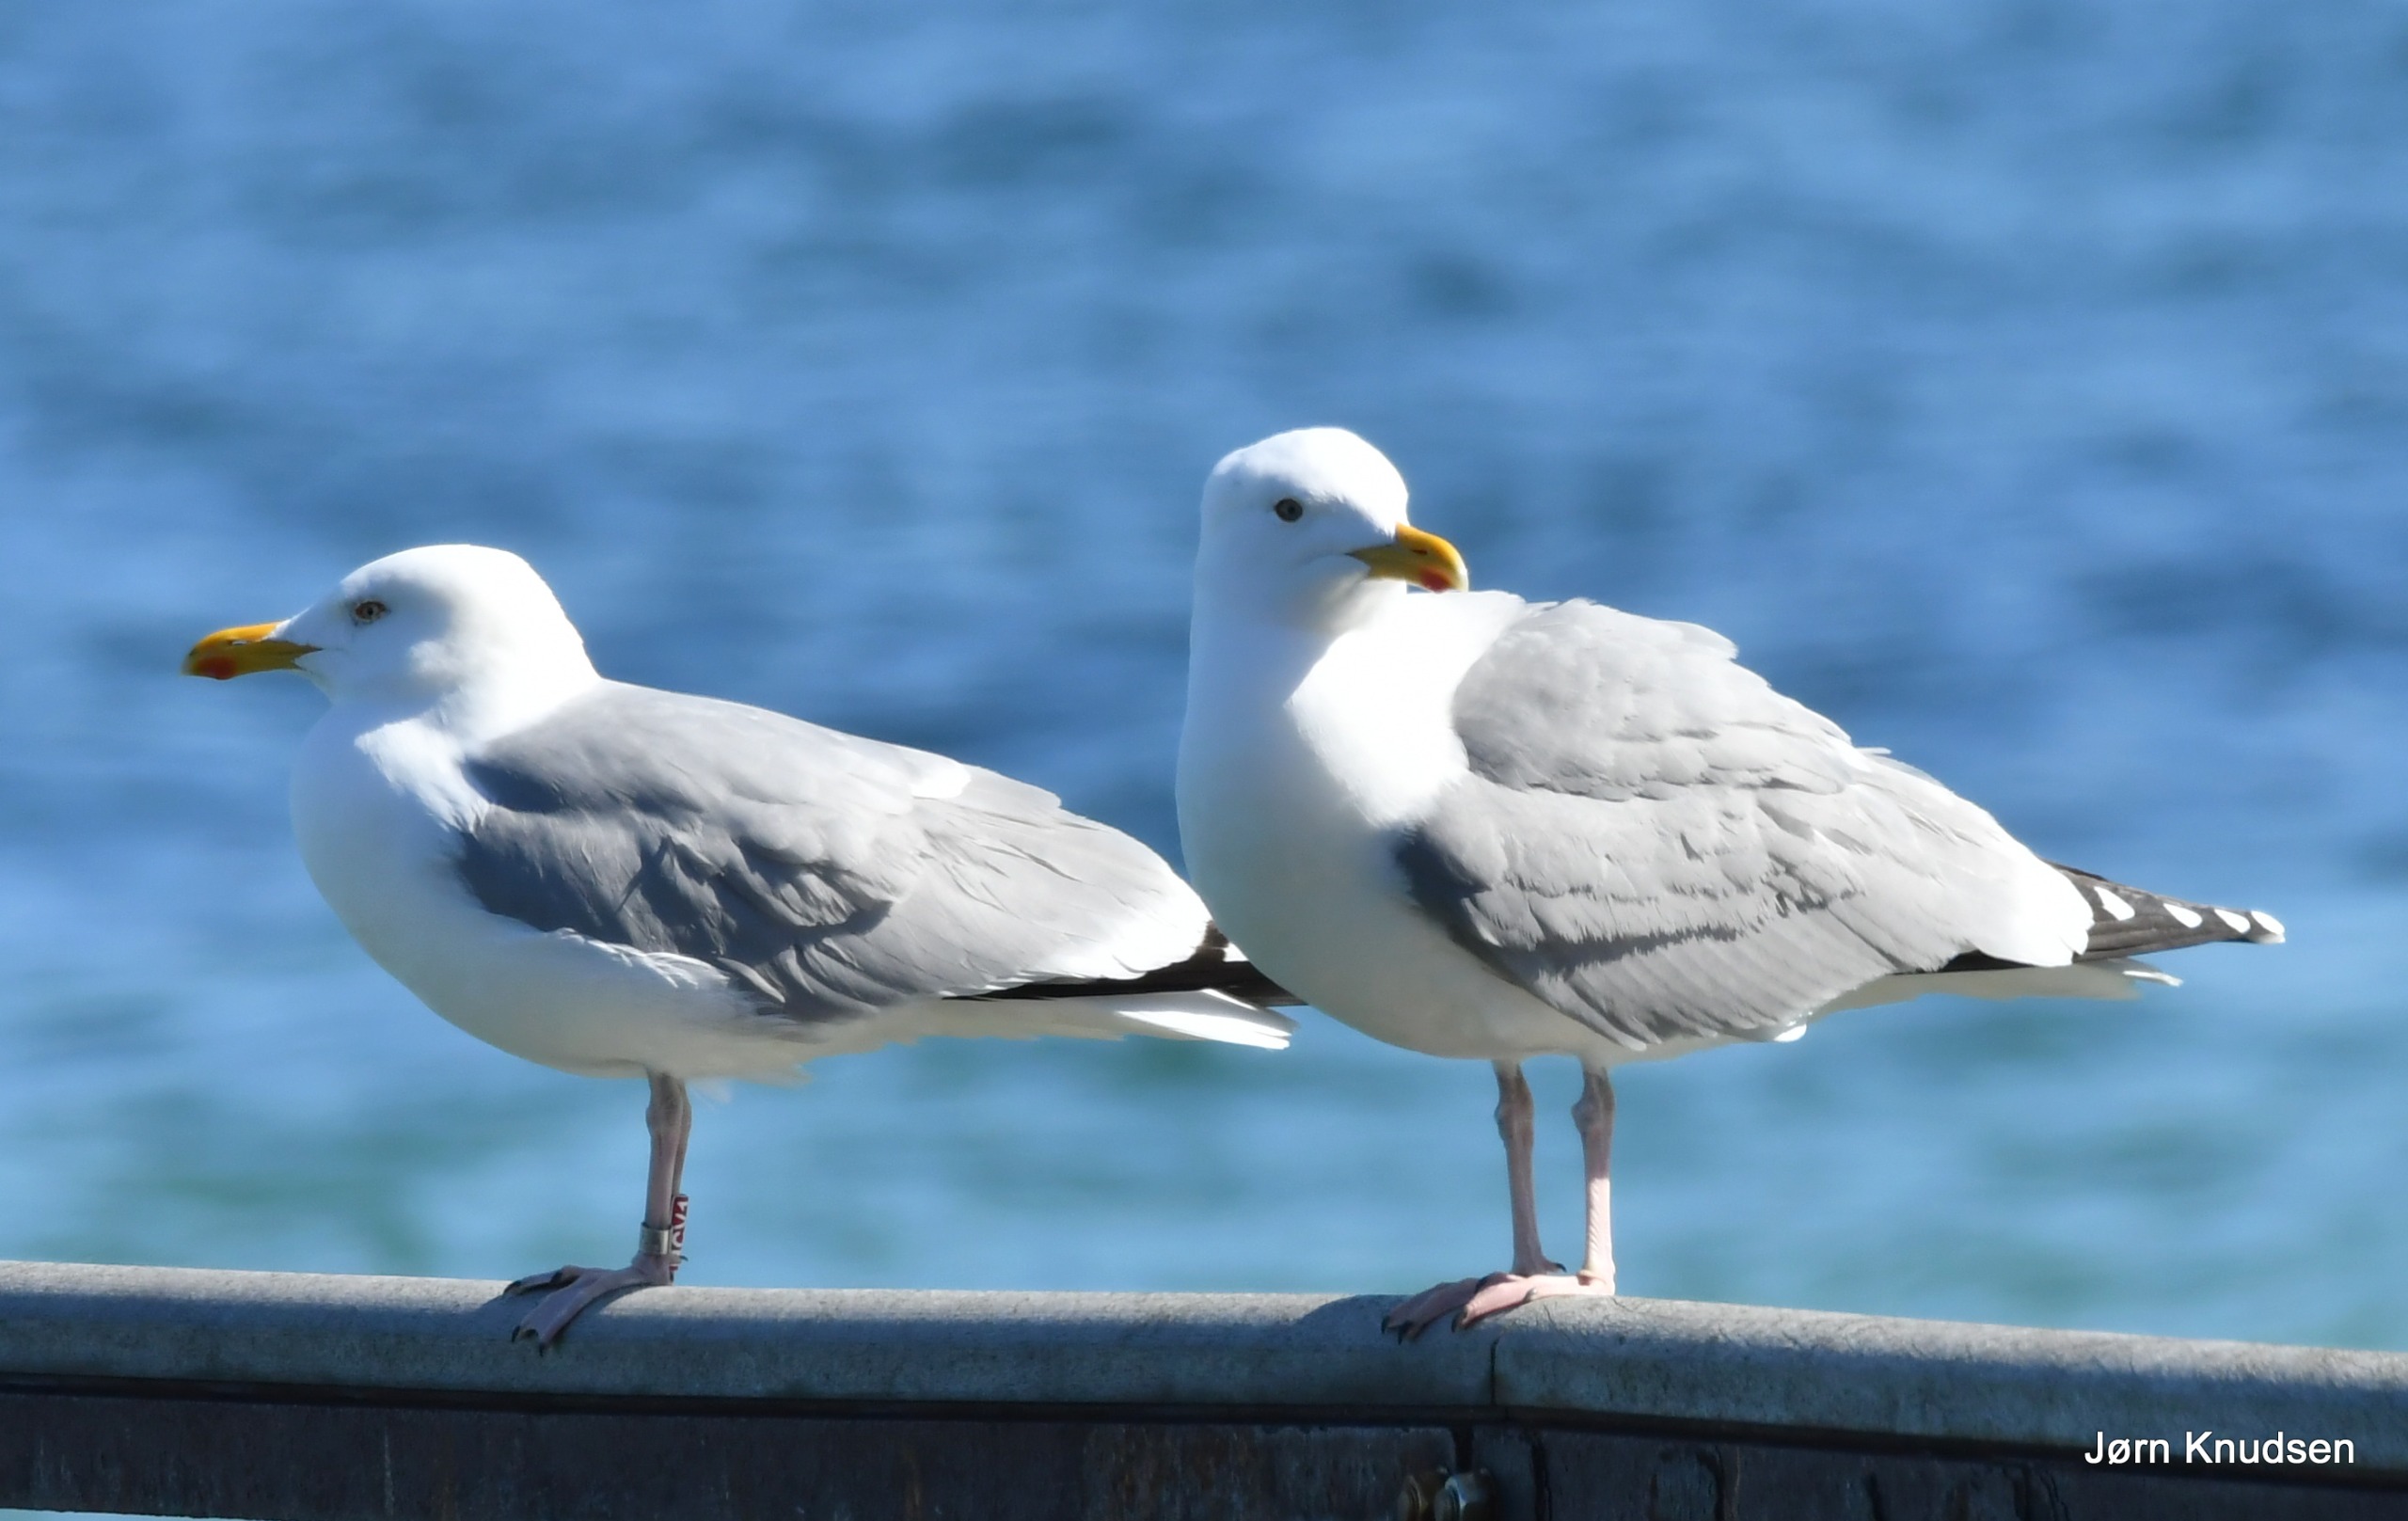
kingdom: Animalia
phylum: Chordata
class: Aves
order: Charadriiformes
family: Laridae
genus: Larus
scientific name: Larus argentatus
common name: Sølvmåge
